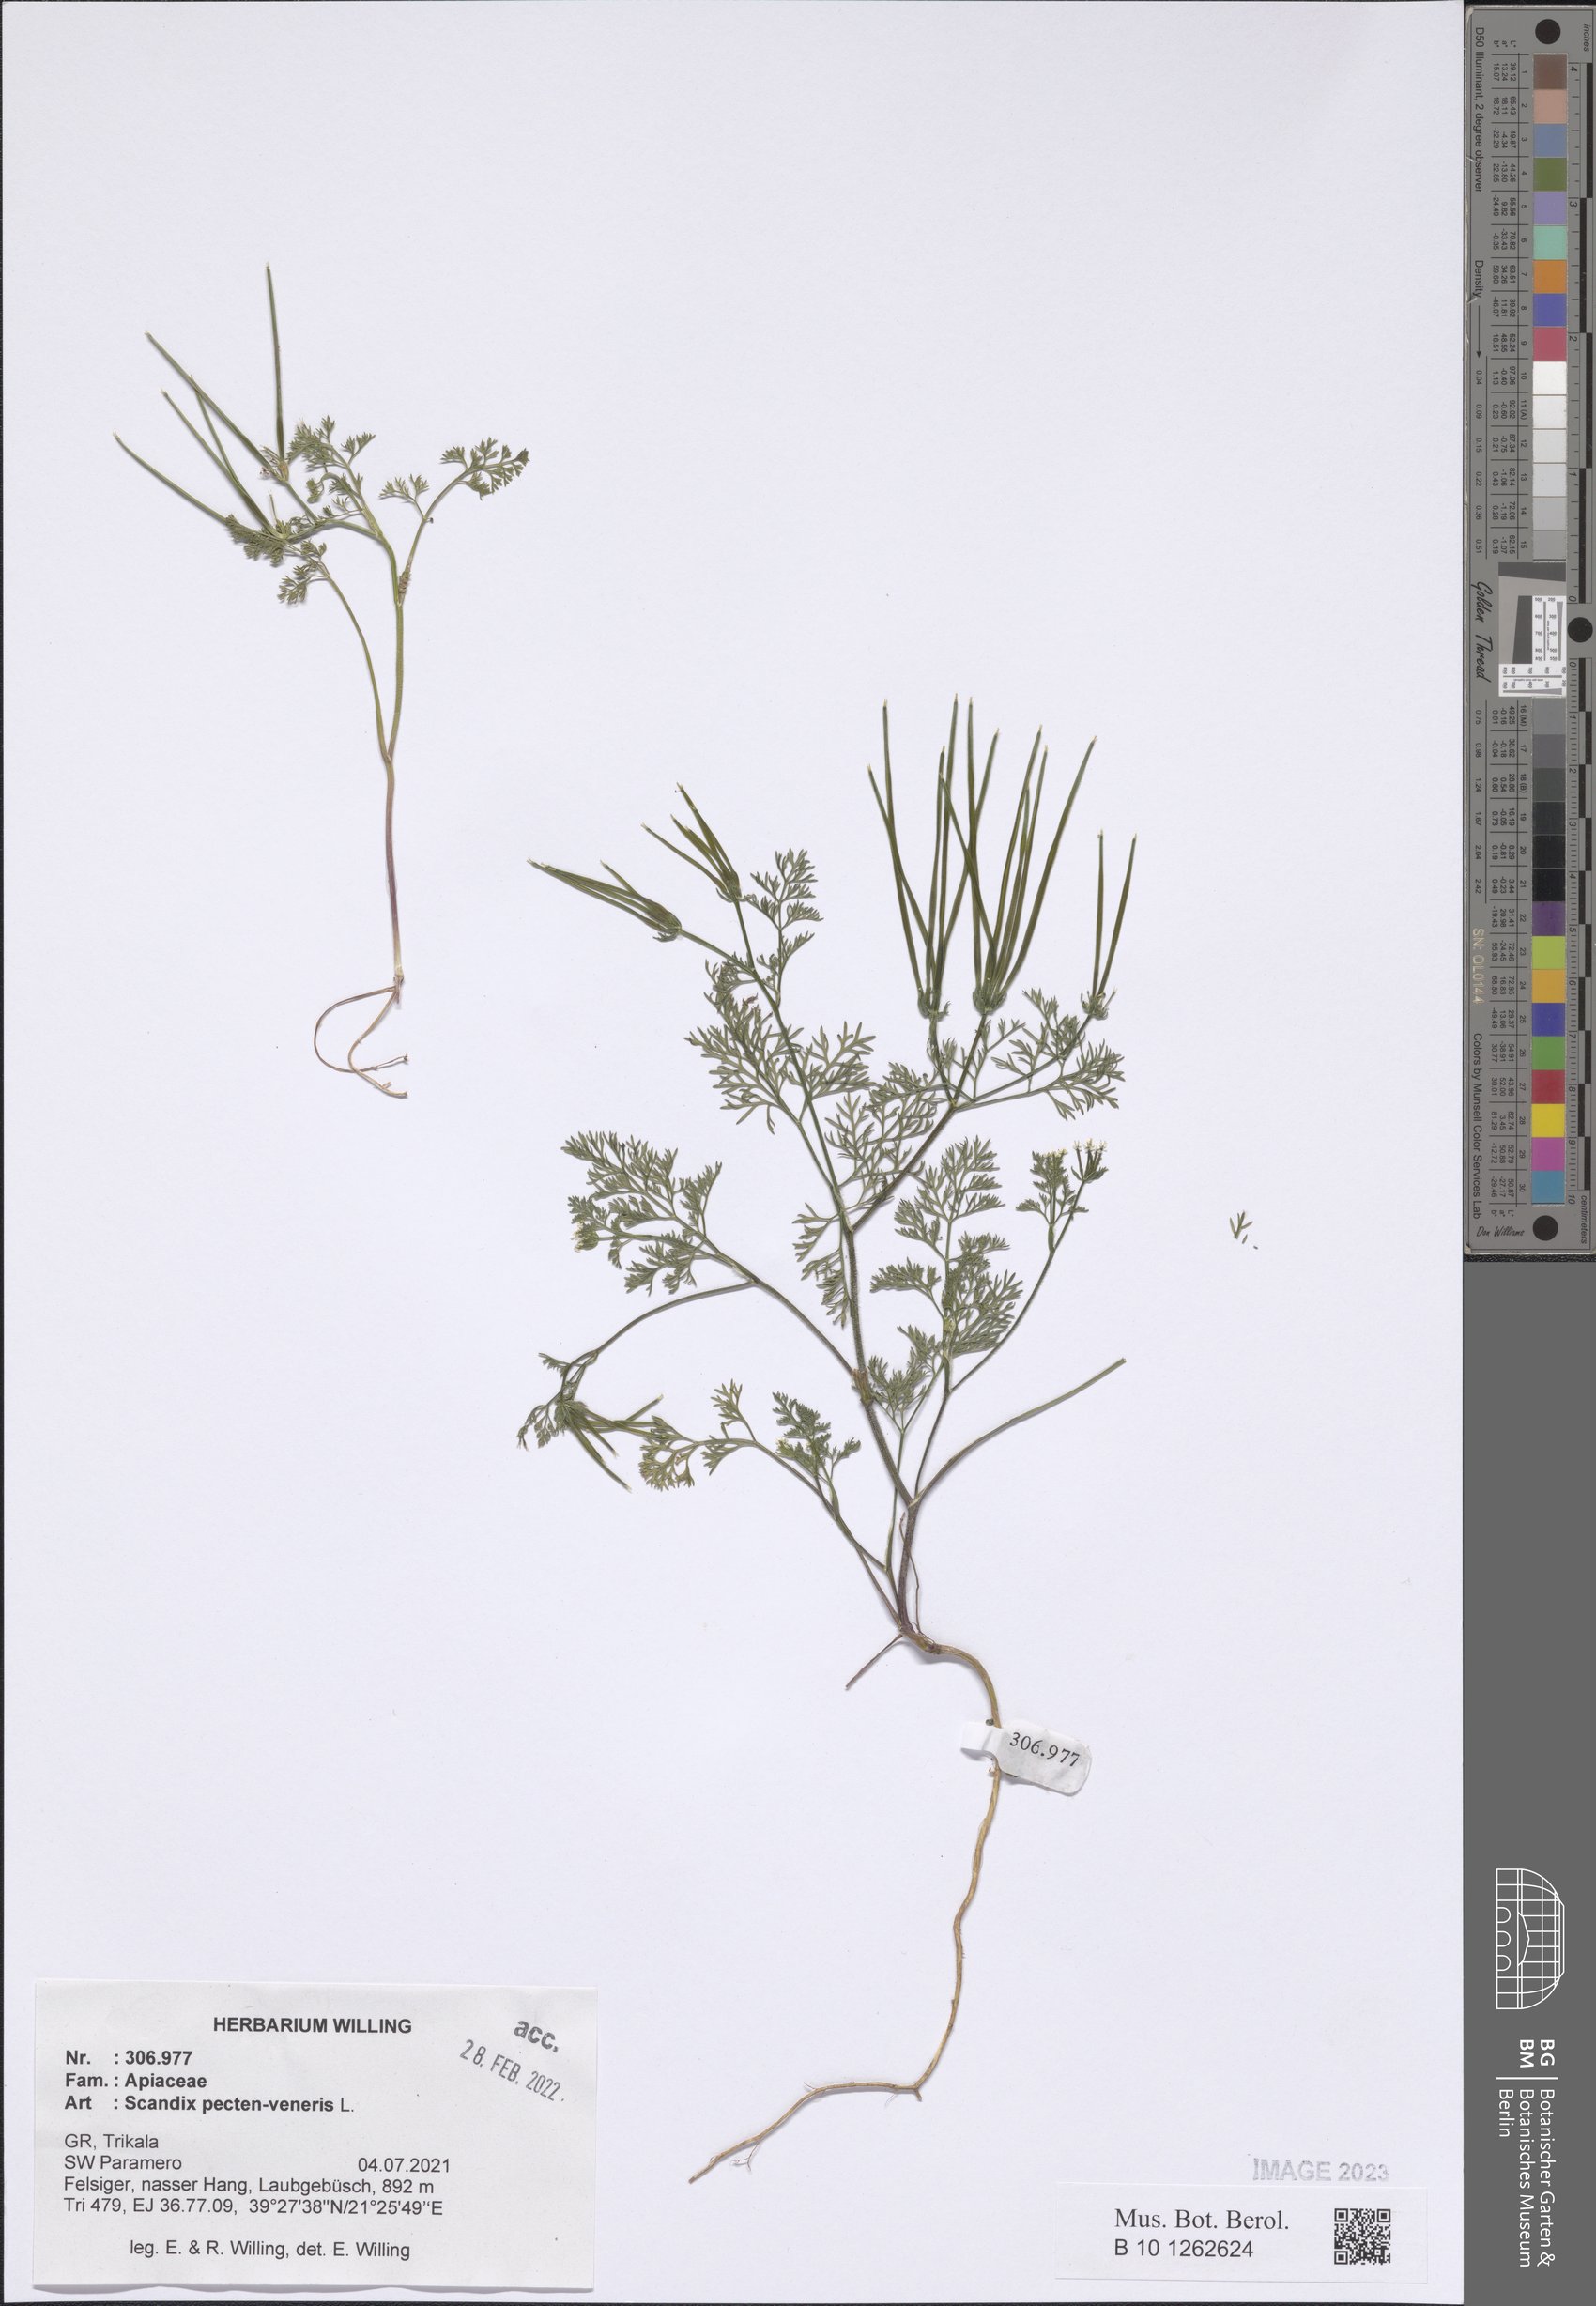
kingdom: Plantae
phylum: Tracheophyta
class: Magnoliopsida
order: Apiales
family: Apiaceae
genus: Scandix
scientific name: Scandix pecten-veneris
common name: Shepherd's-needle
